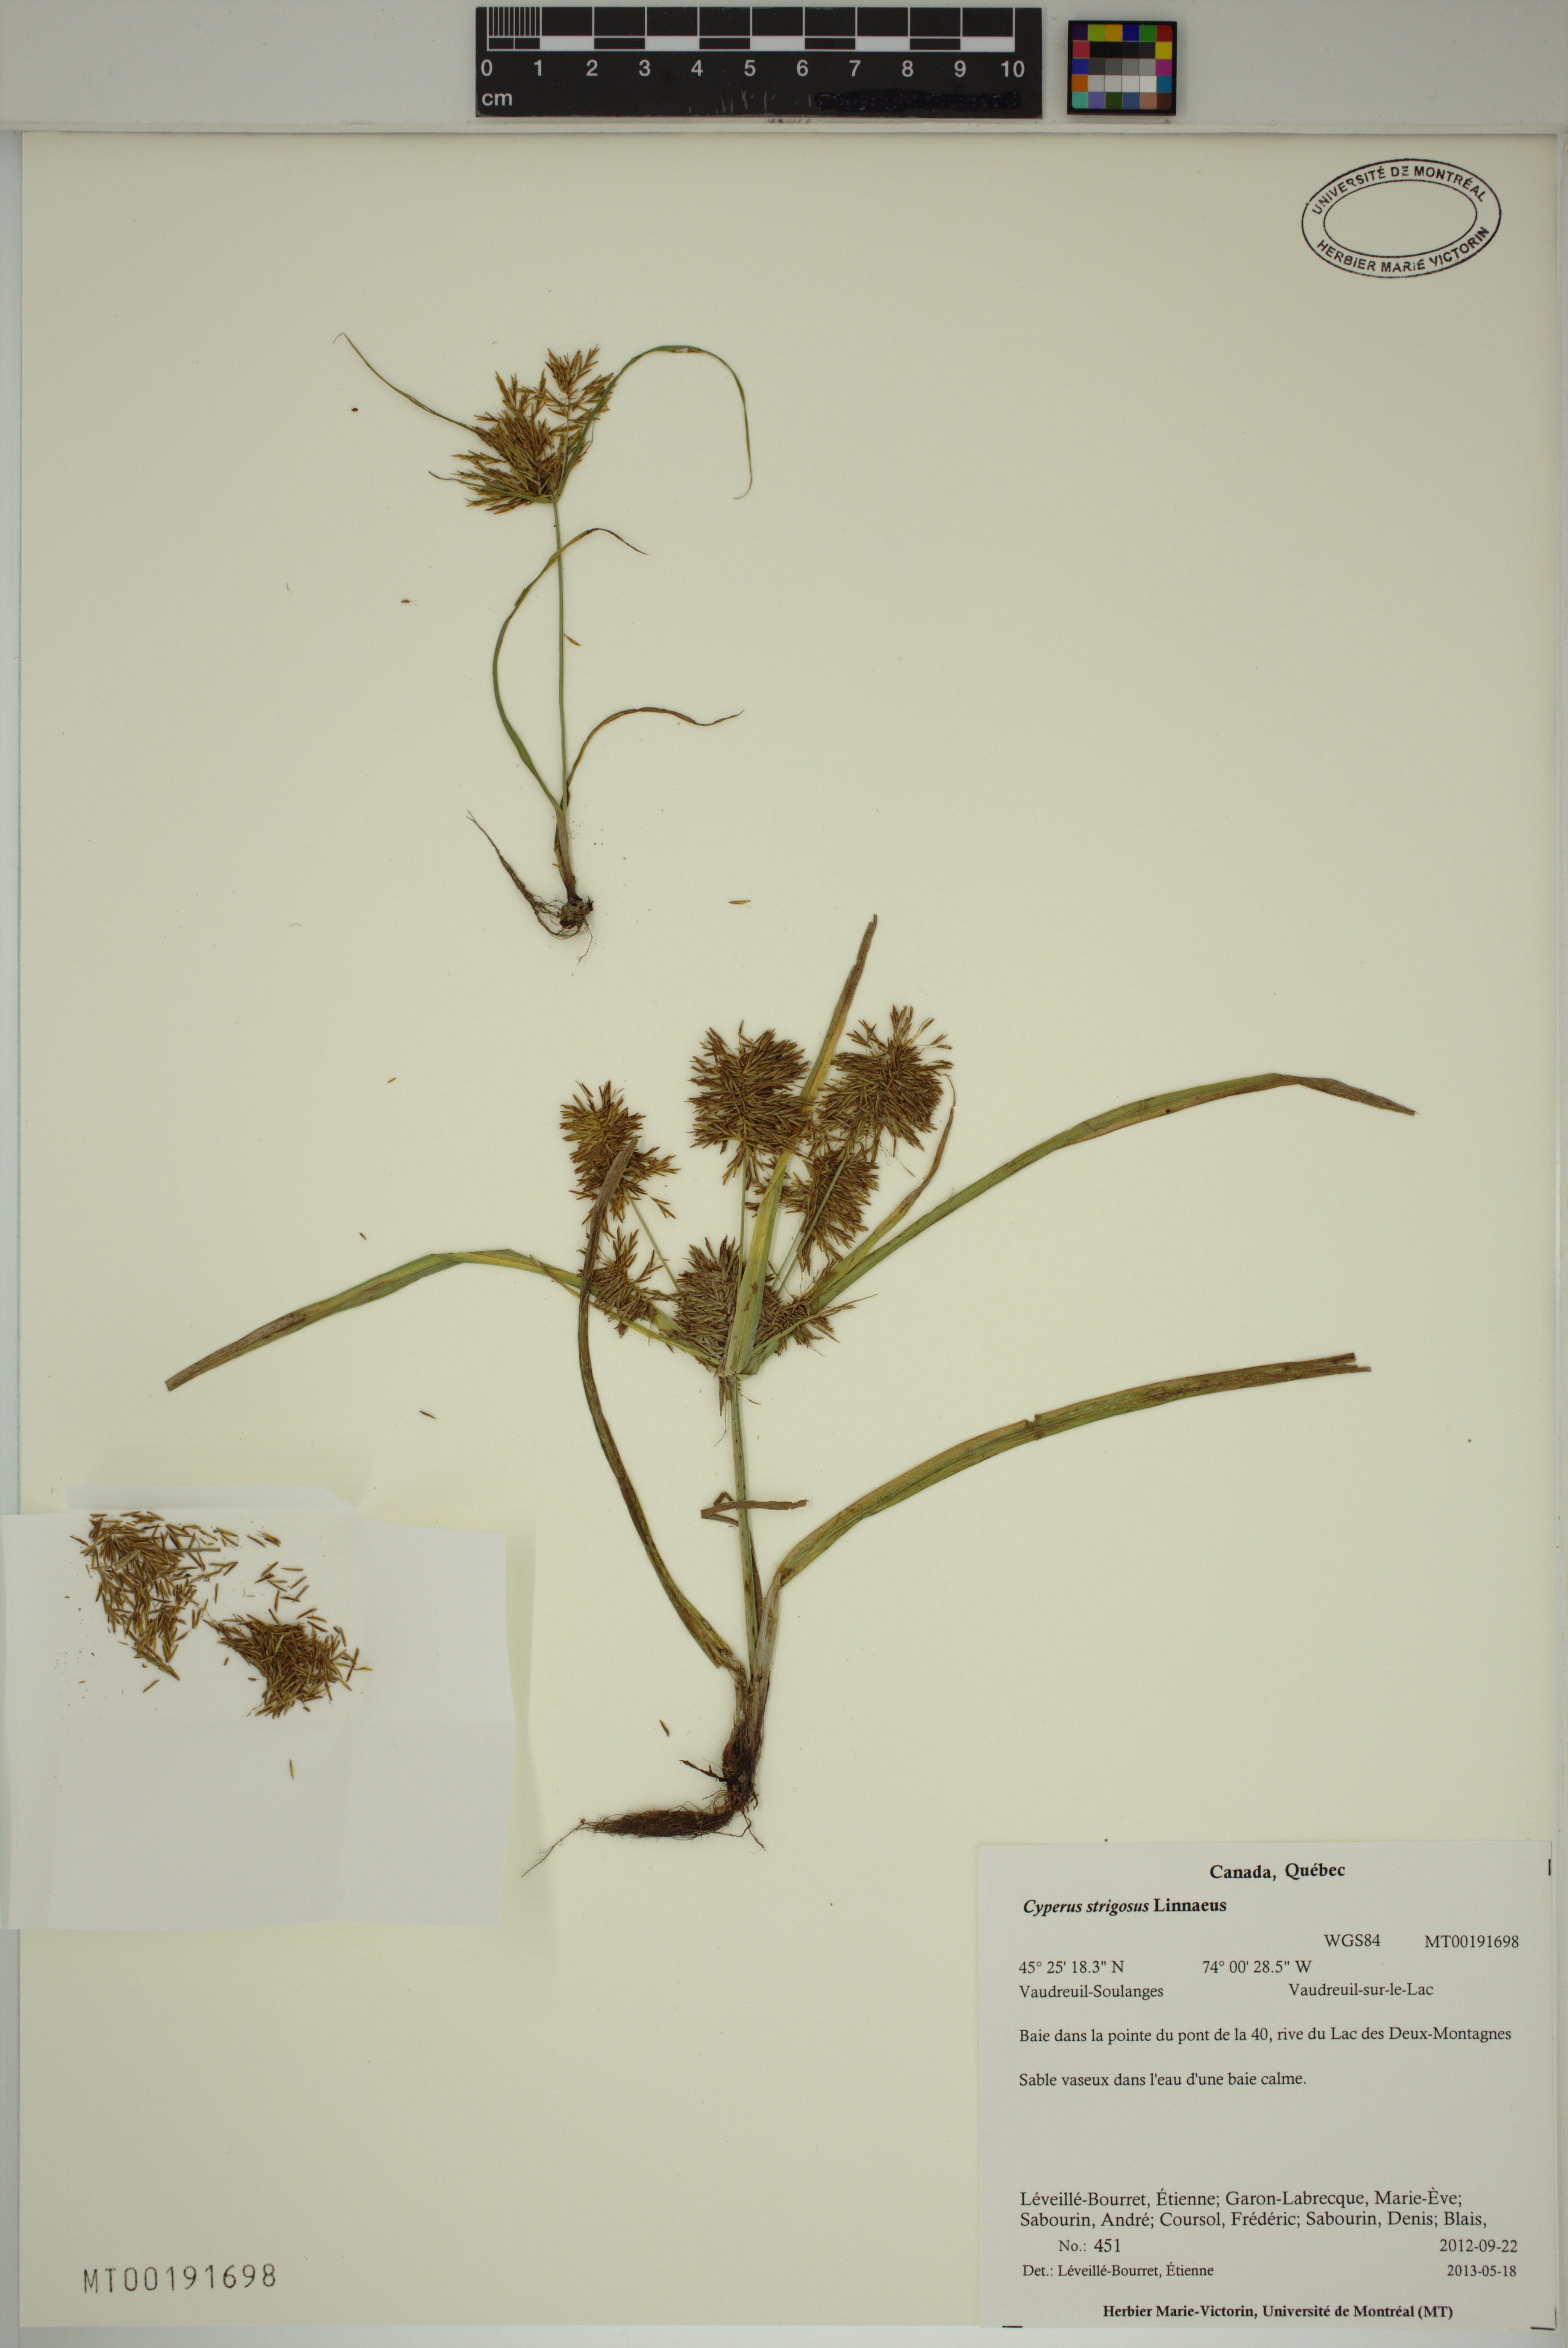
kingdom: Plantae
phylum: Tracheophyta
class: Liliopsida
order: Poales
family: Cyperaceae
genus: Cyperus
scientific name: Cyperus strigosus
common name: False nutsedge
